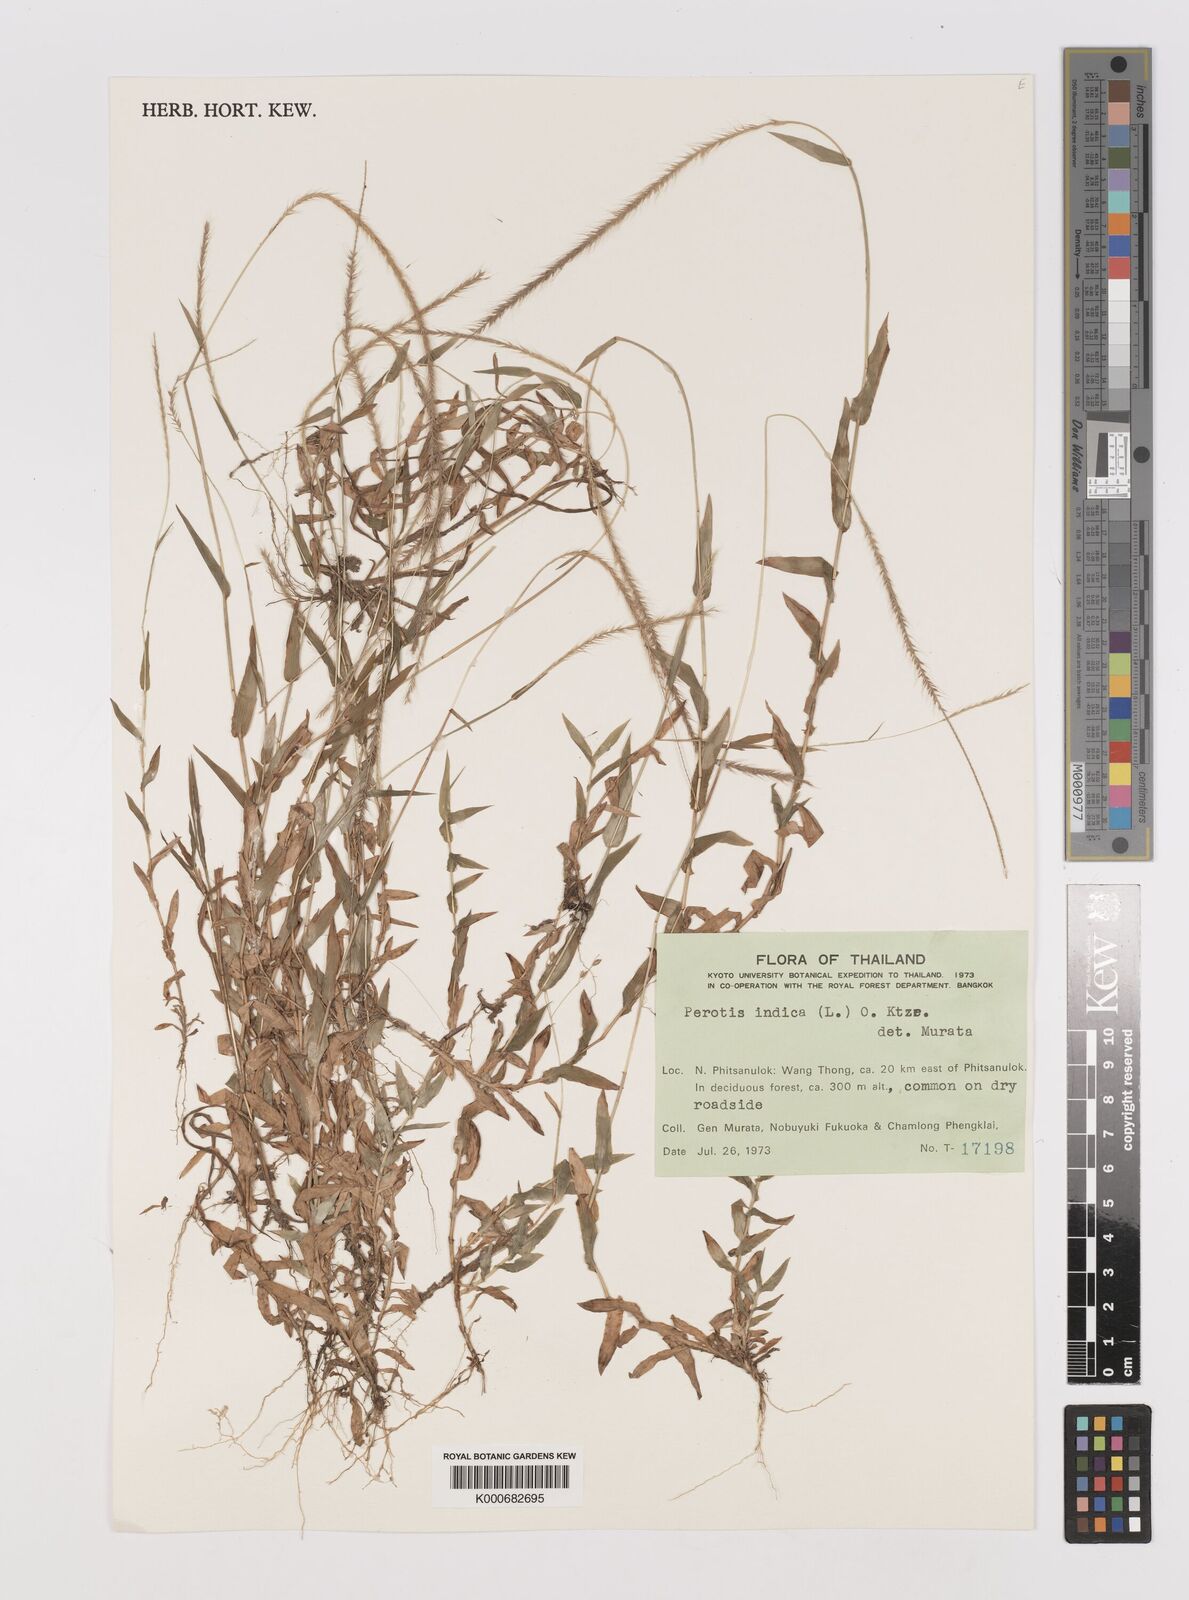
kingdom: Plantae
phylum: Tracheophyta
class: Liliopsida
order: Poales
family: Poaceae
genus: Perotis
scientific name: Perotis indica
